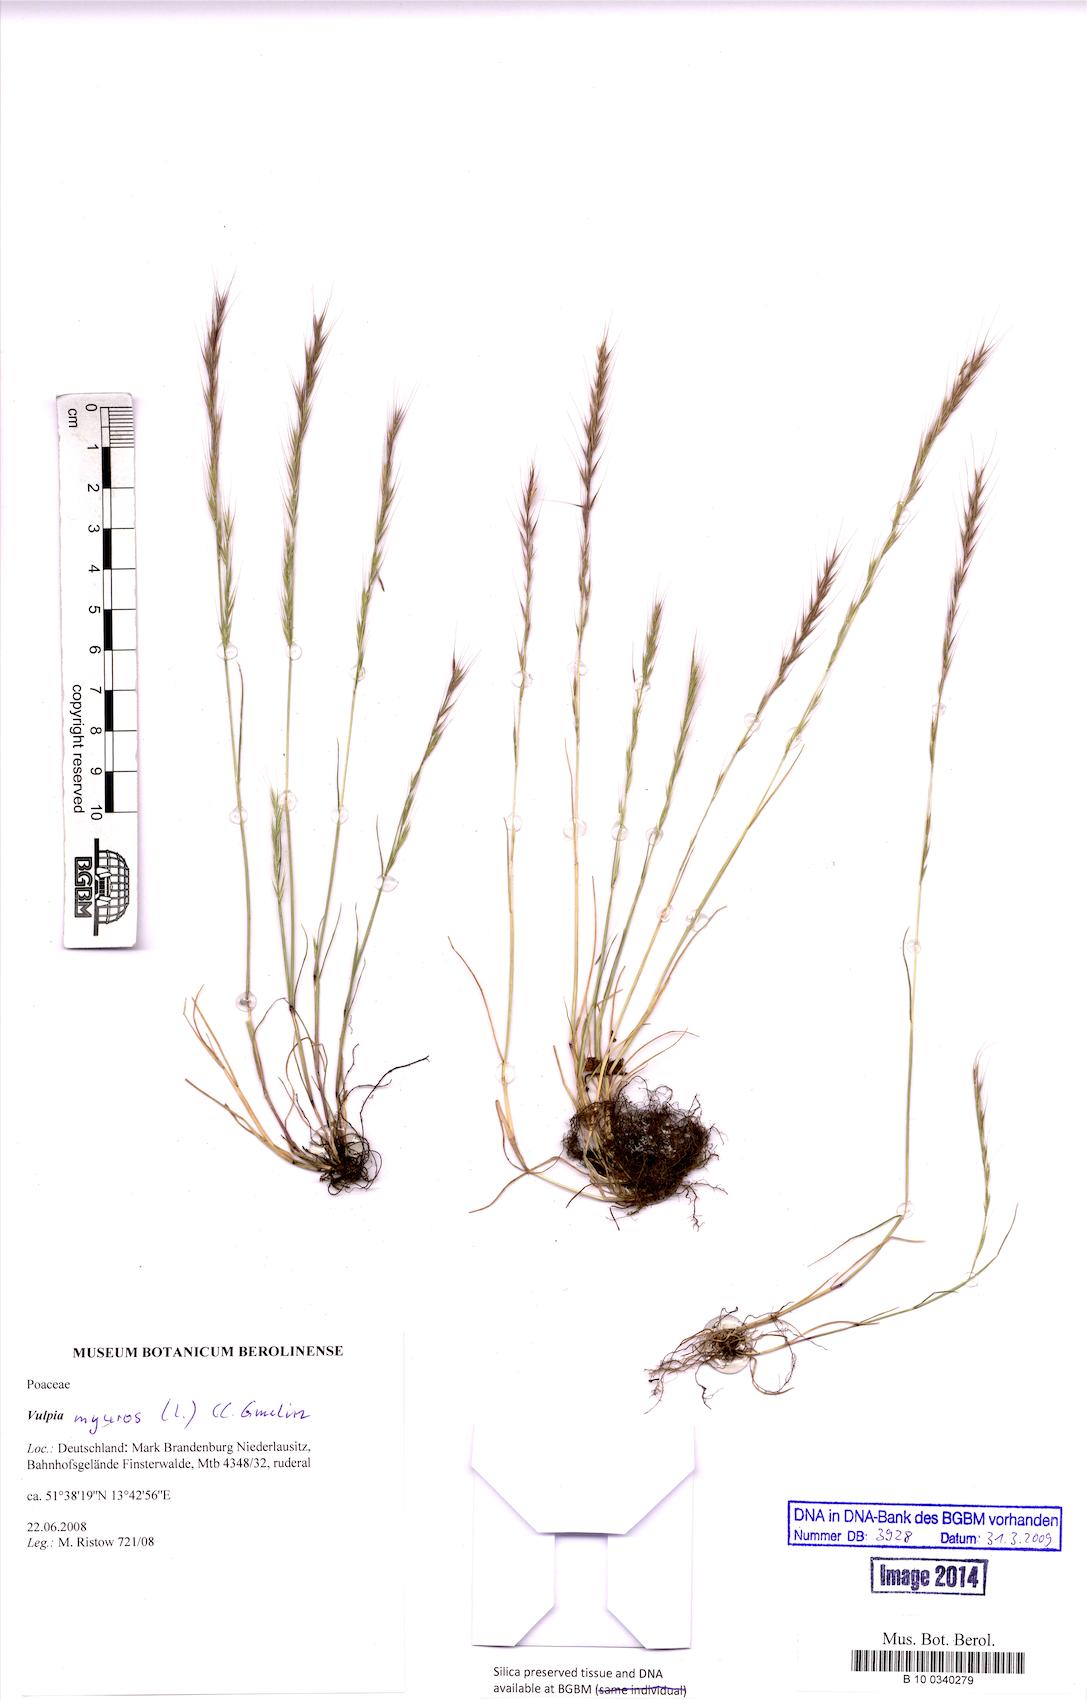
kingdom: Plantae
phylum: Tracheophyta
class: Liliopsida
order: Poales
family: Poaceae
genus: Festuca
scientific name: Festuca myuros
